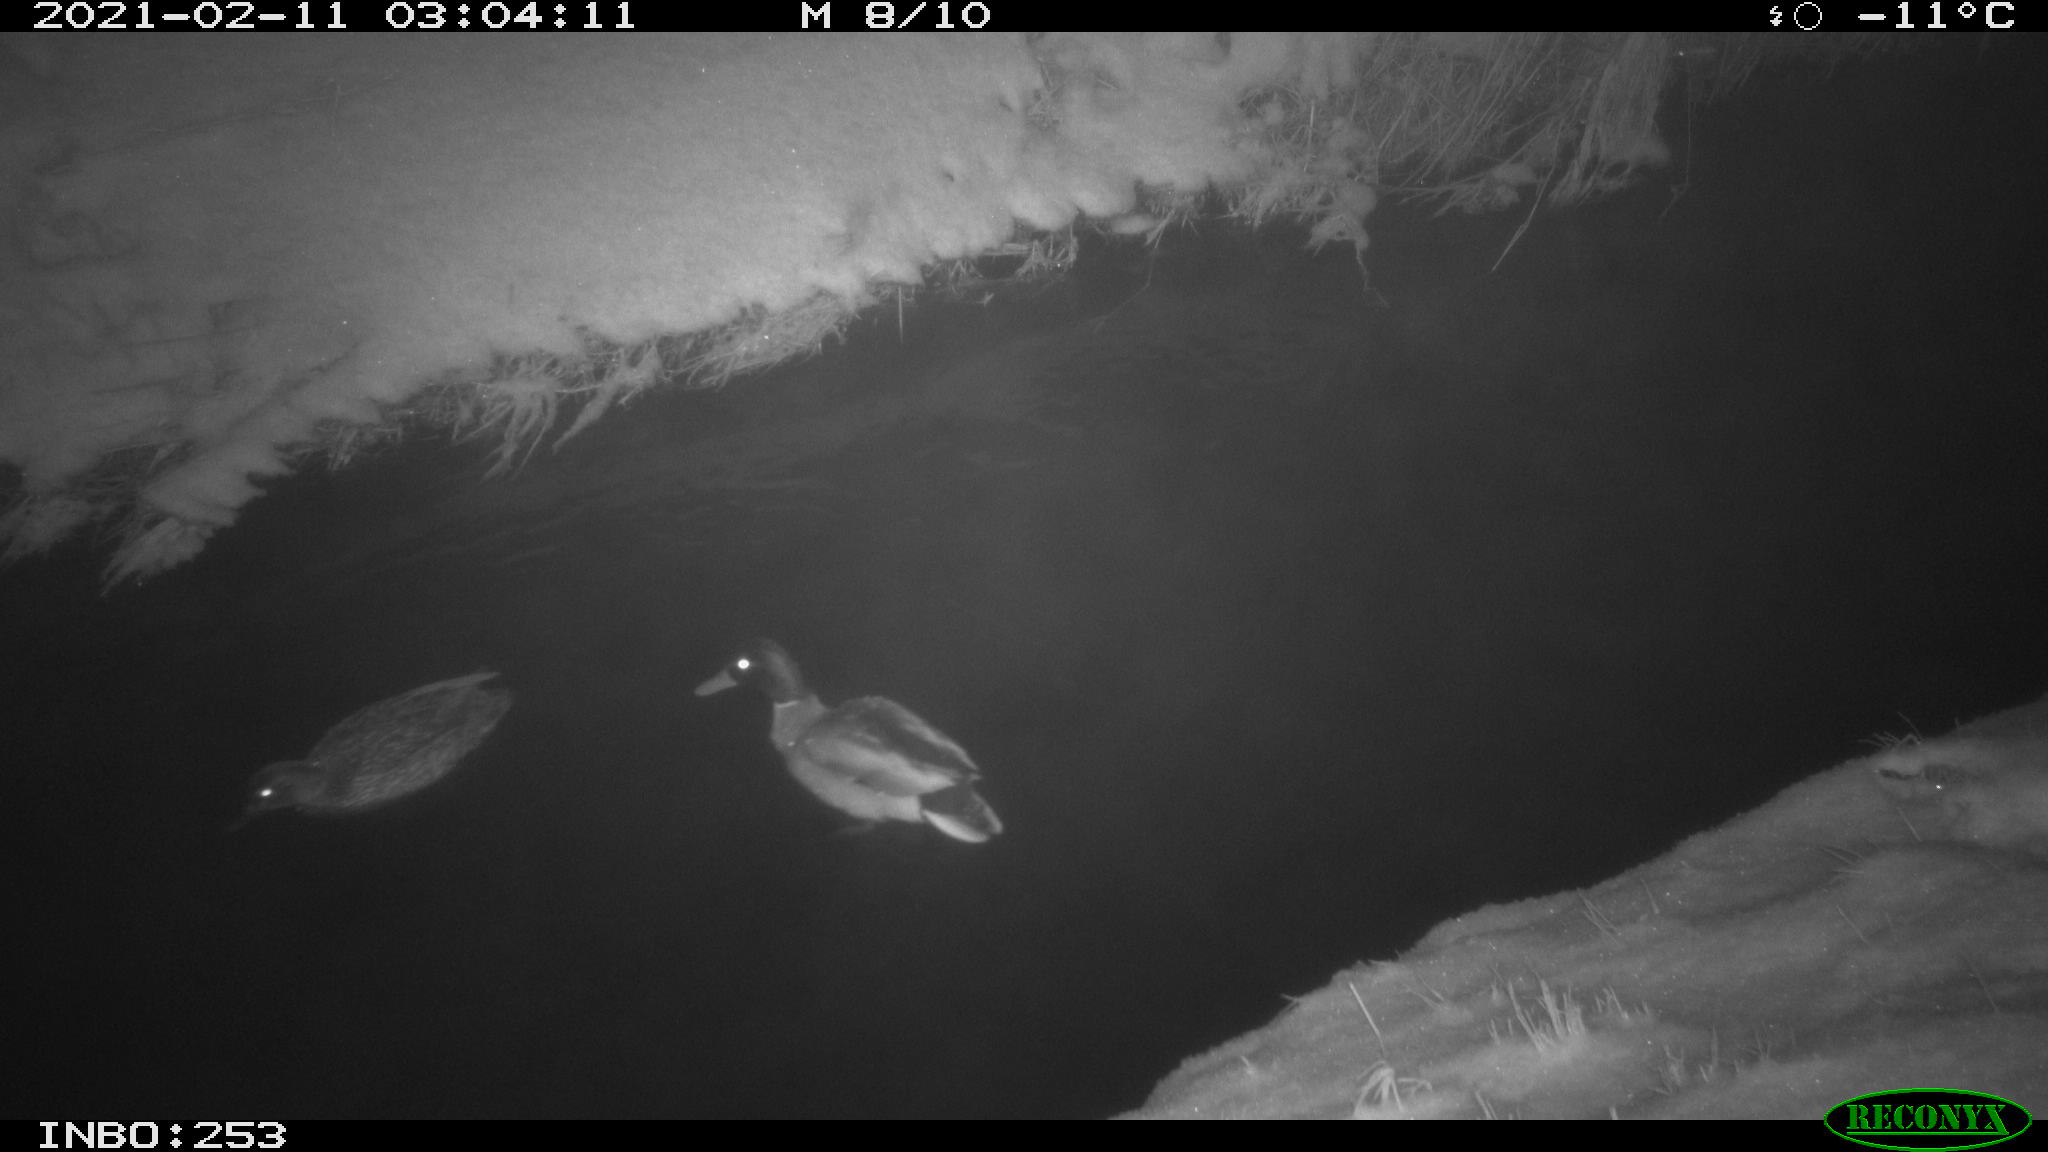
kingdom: Animalia
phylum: Chordata
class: Aves
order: Anseriformes
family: Anatidae
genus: Anas
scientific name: Anas platyrhynchos
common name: Mallard
